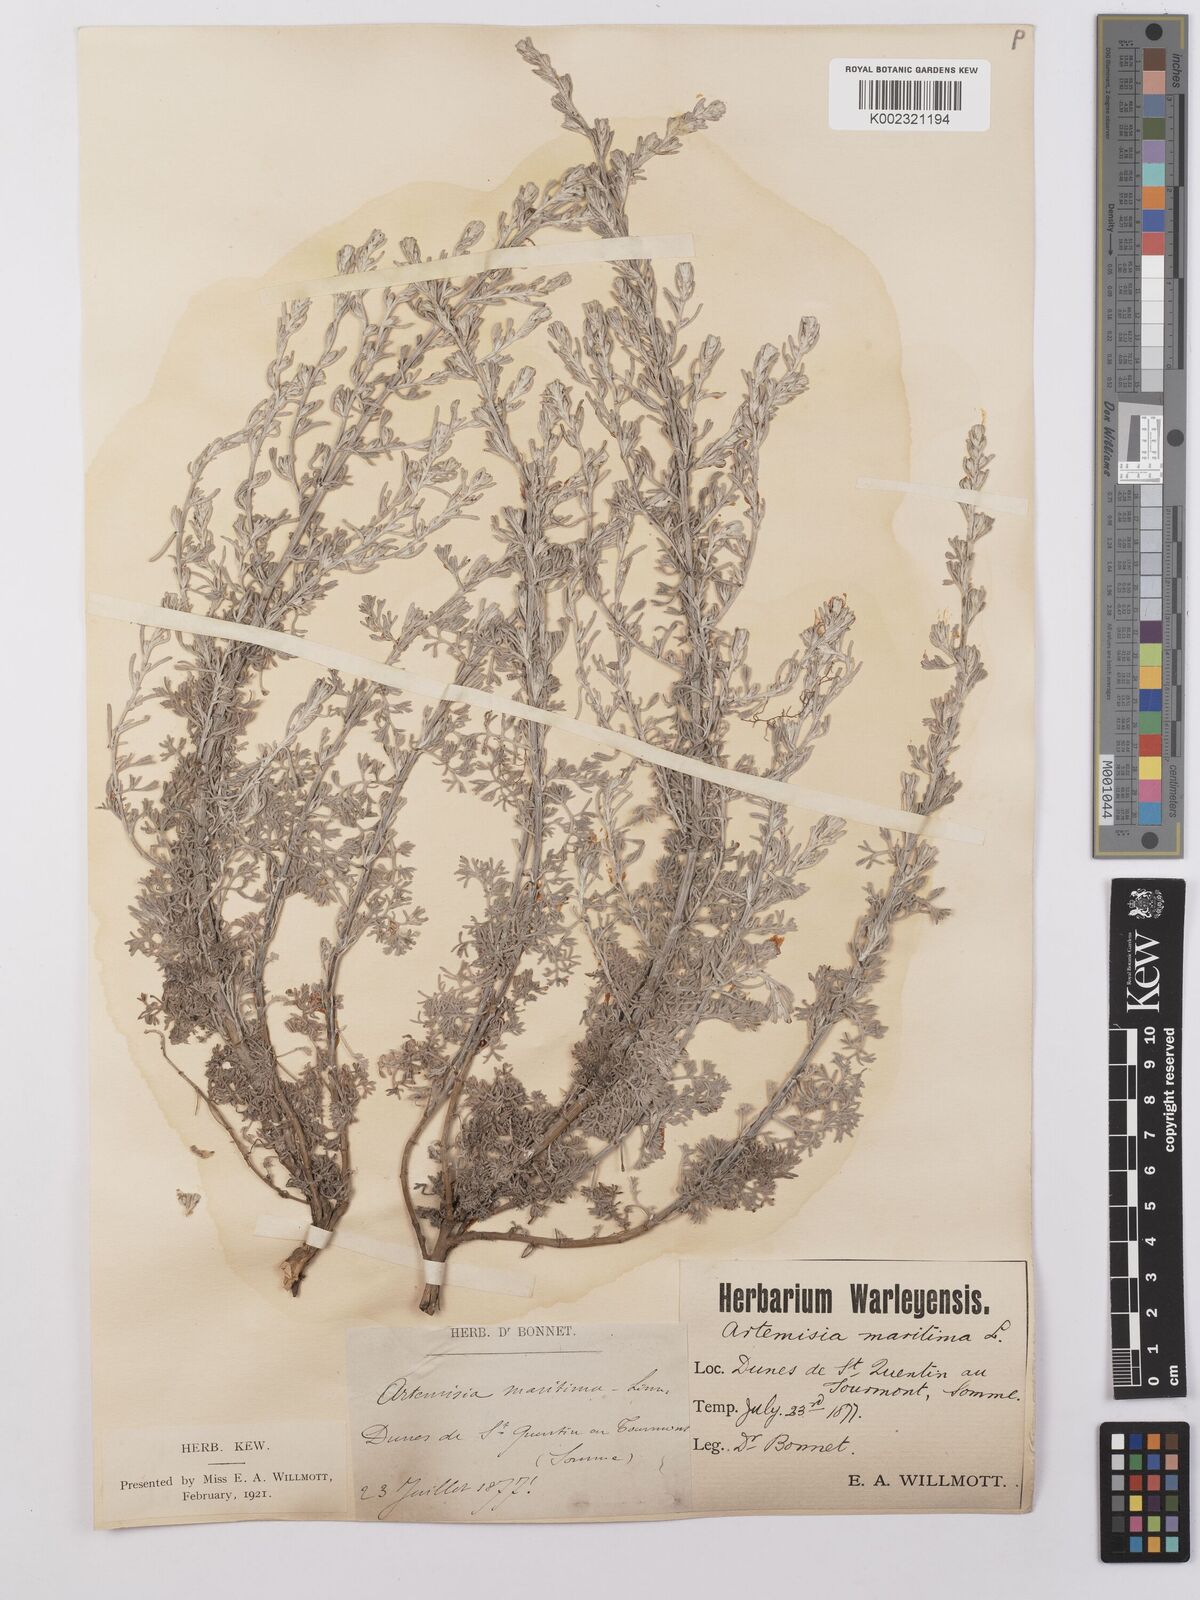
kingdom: Plantae
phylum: Tracheophyta
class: Magnoliopsida
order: Asterales
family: Asteraceae
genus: Artemisia
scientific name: Artemisia maritima
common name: Wormseed
